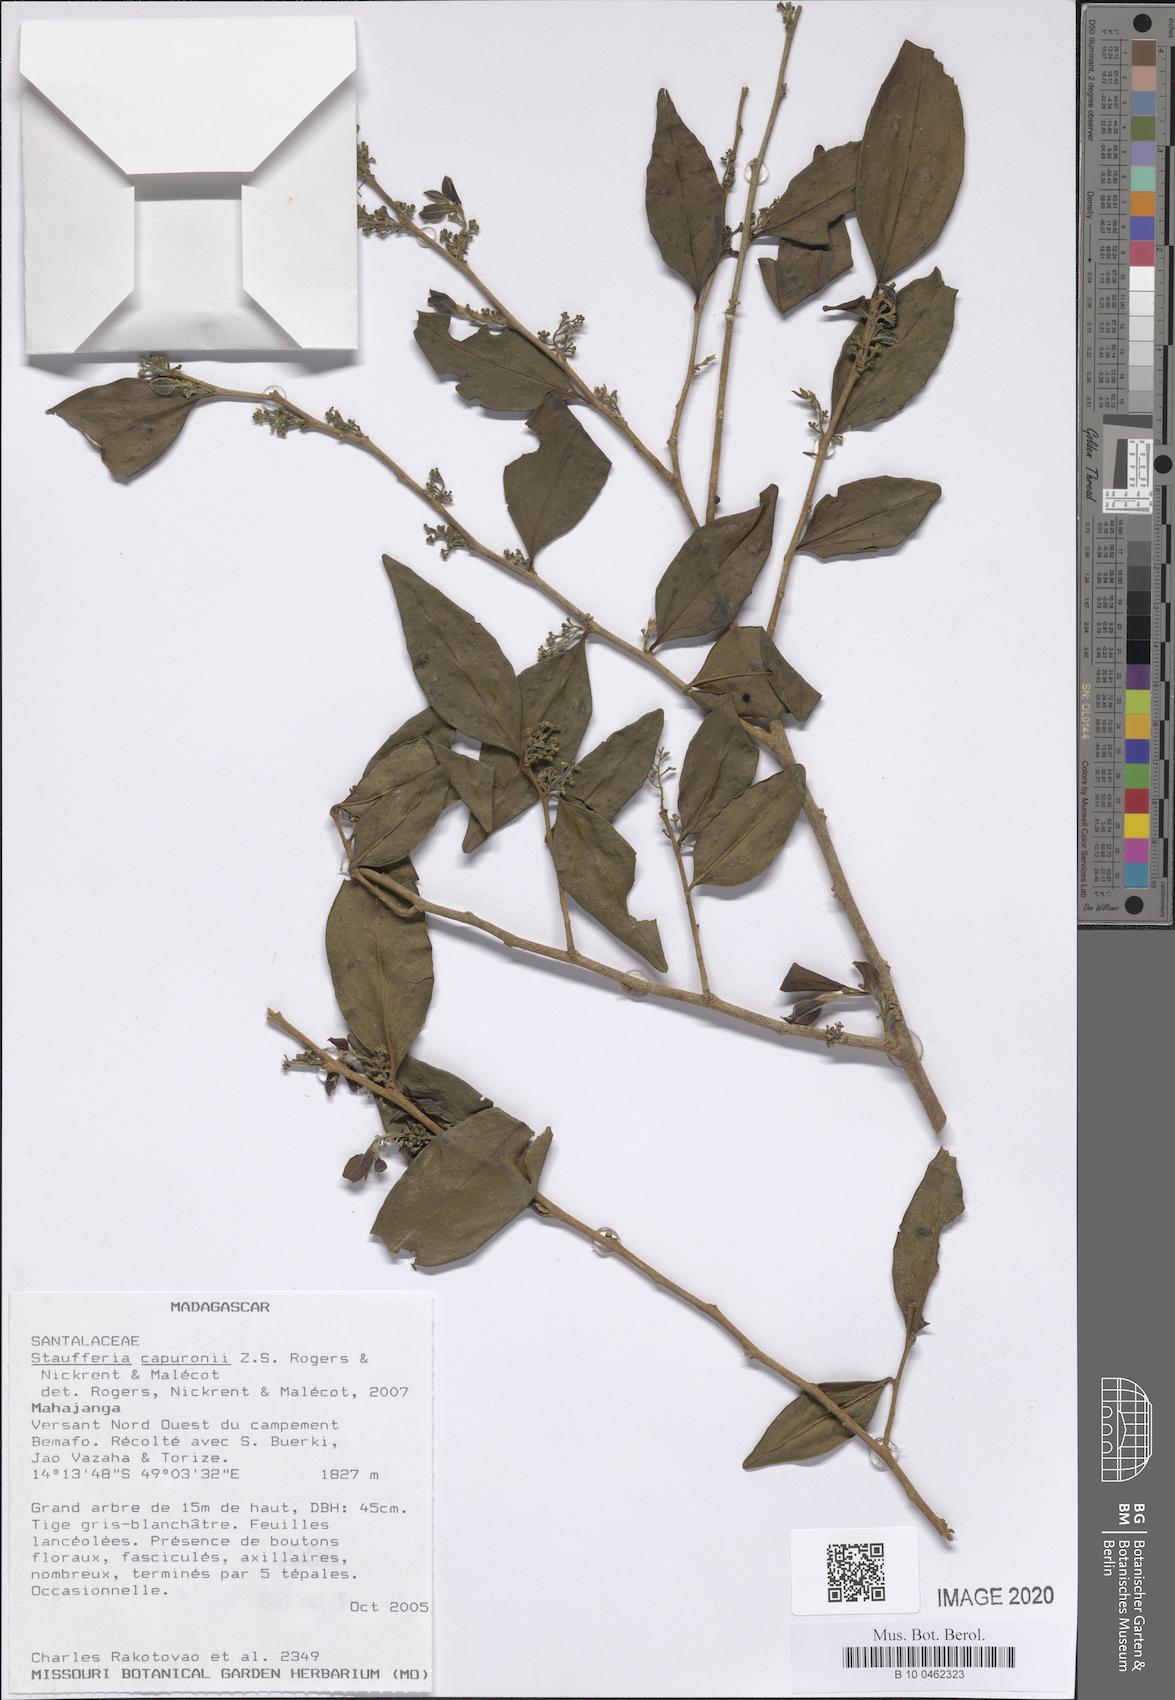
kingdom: Plantae
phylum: Tracheophyta
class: Magnoliopsida
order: Santalales
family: Cervantesiaceae
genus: Staufferia
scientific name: Staufferia capuronii
